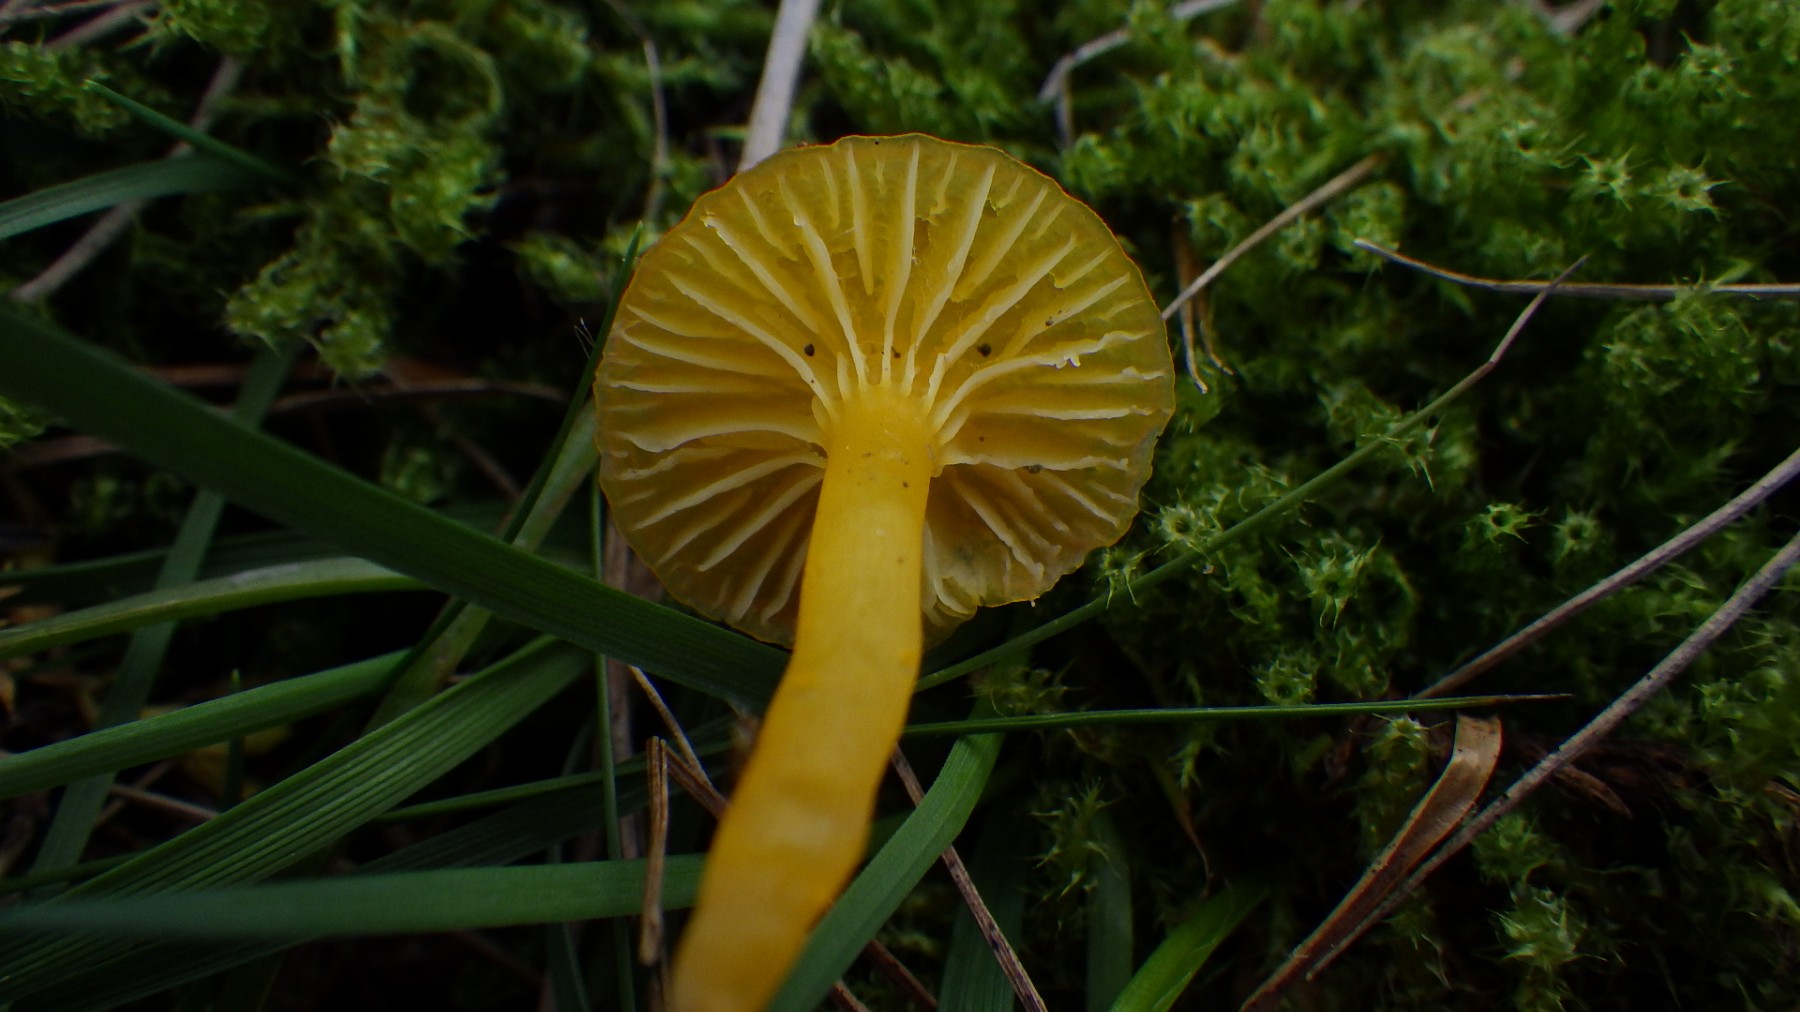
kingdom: Fungi
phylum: Basidiomycota
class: Agaricomycetes
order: Agaricales
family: Hygrophoraceae
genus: Hygrocybe
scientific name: Hygrocybe ceracea
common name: voksgul vokshat
